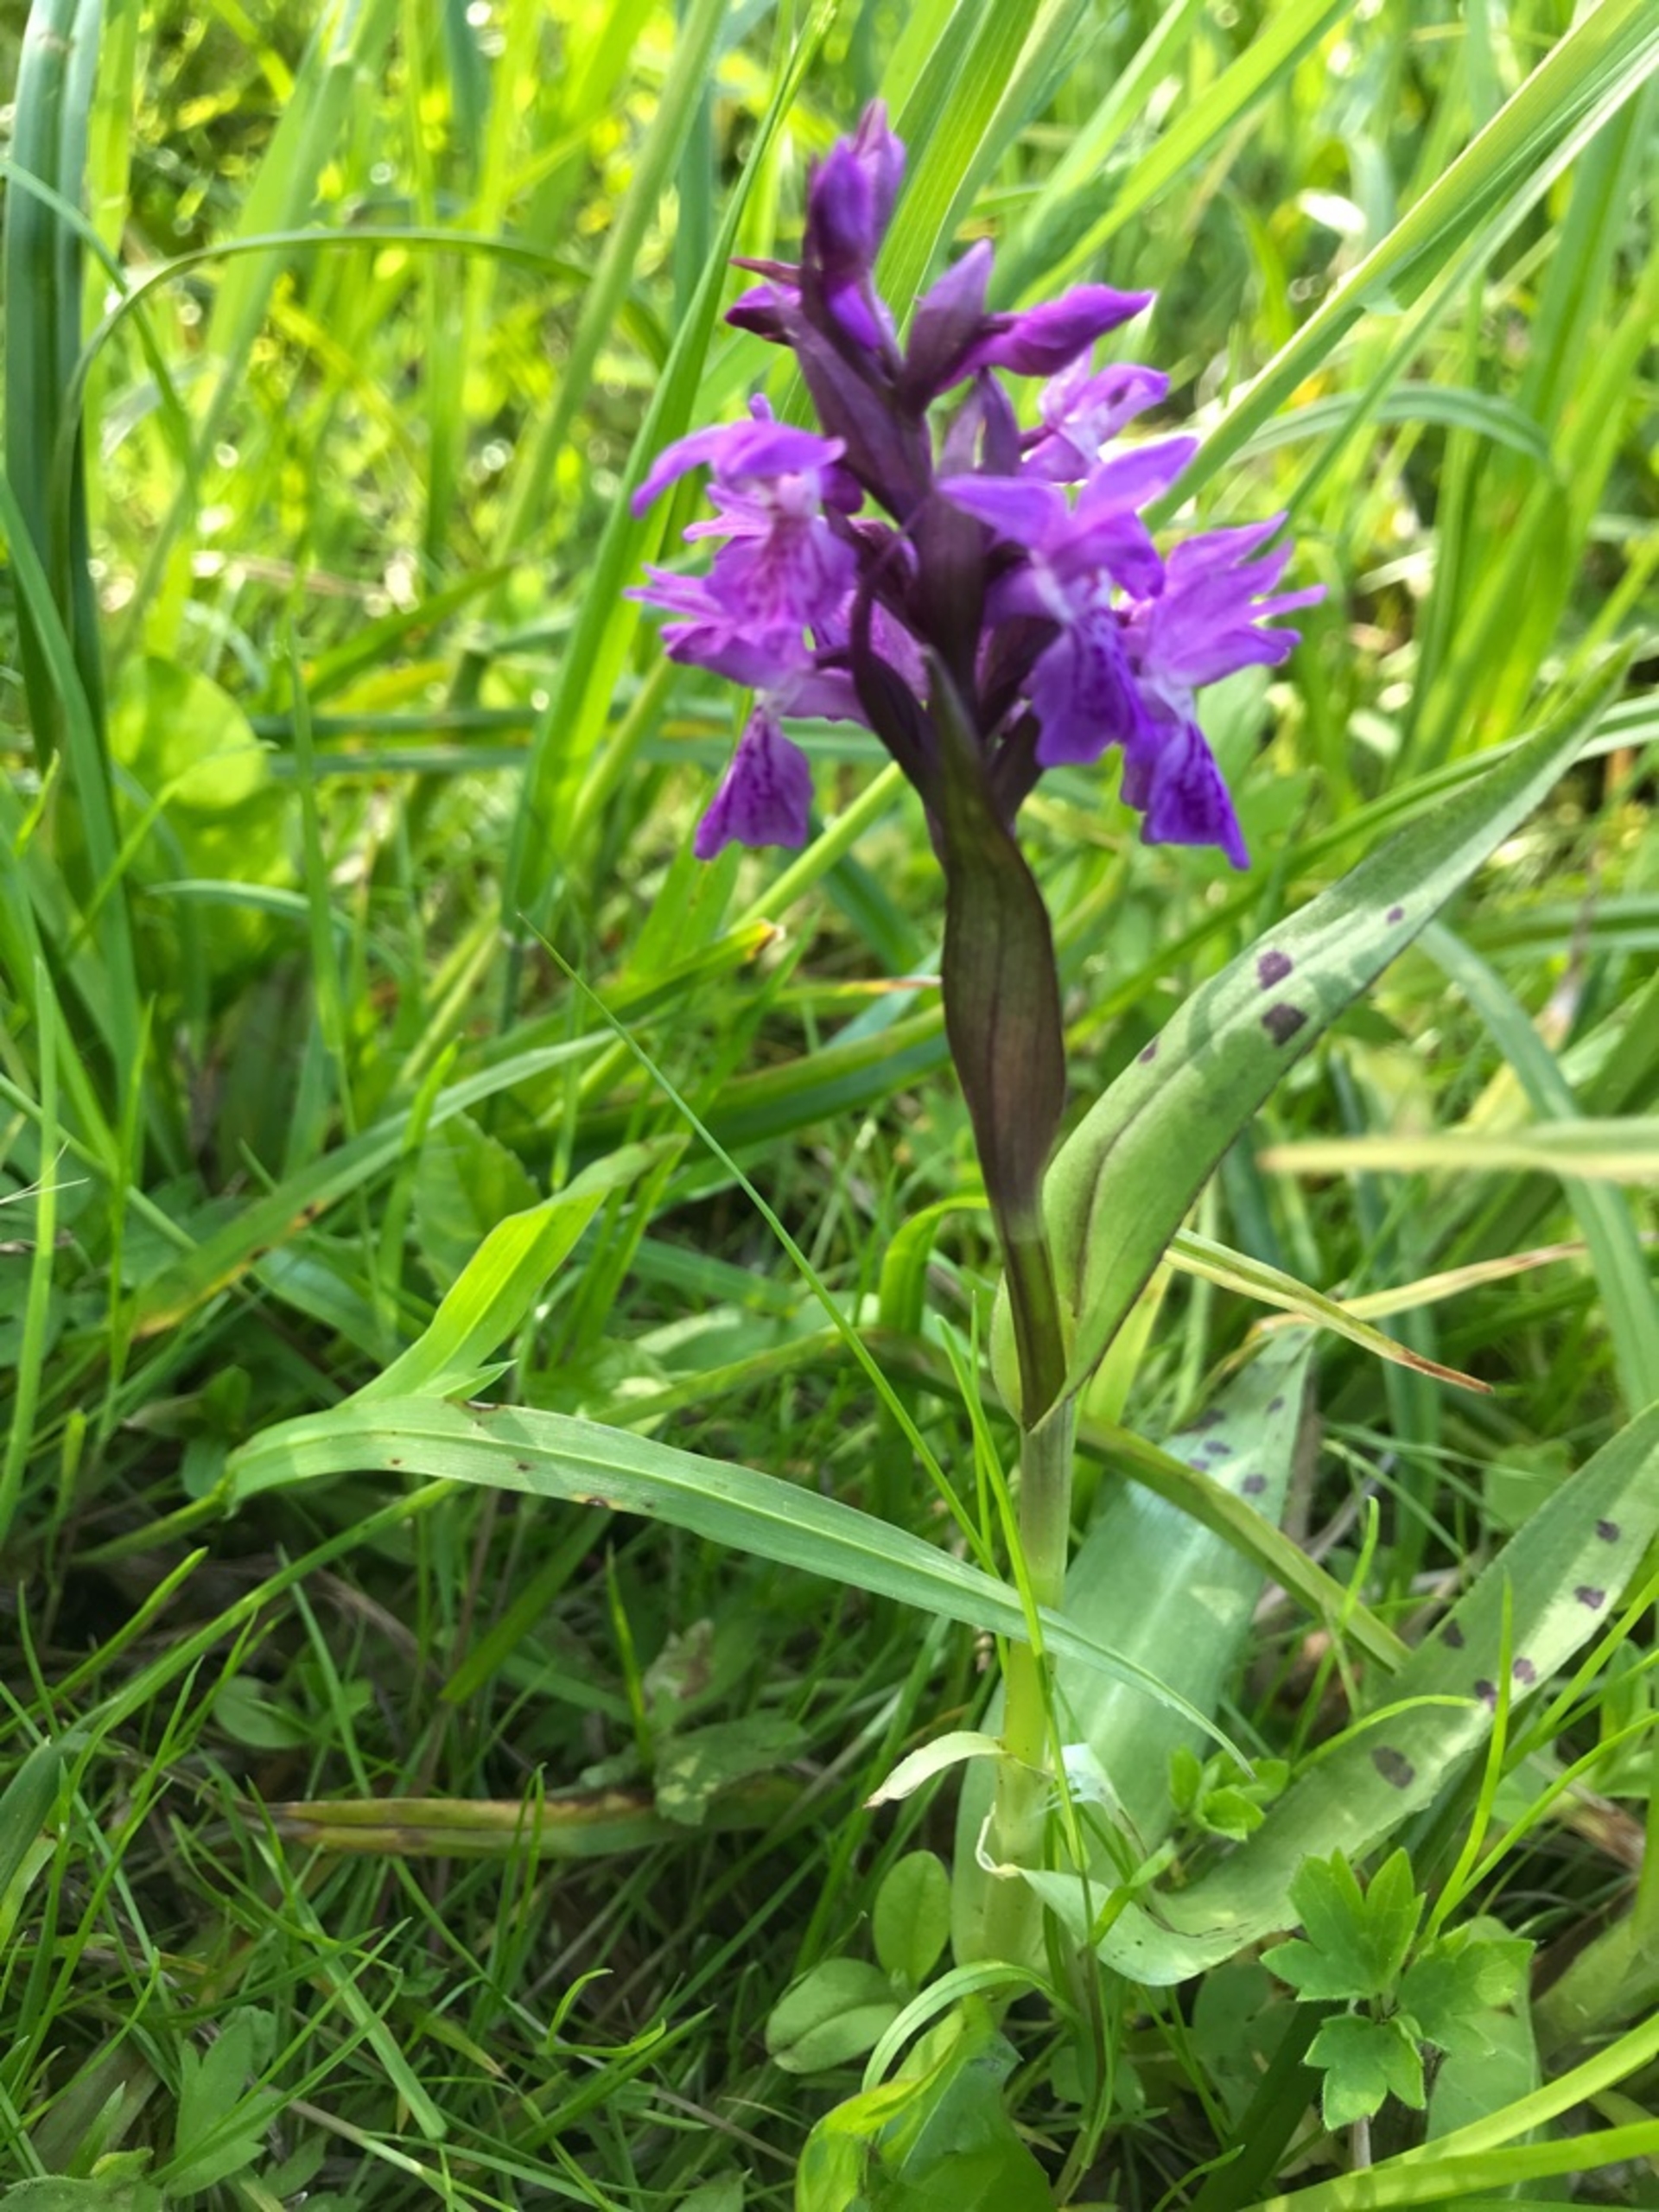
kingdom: Plantae
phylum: Tracheophyta
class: Liliopsida
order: Asparagales
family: Orchidaceae
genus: Dactylorhiza
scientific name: Dactylorhiza majalis
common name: Maj-gøgeurt
